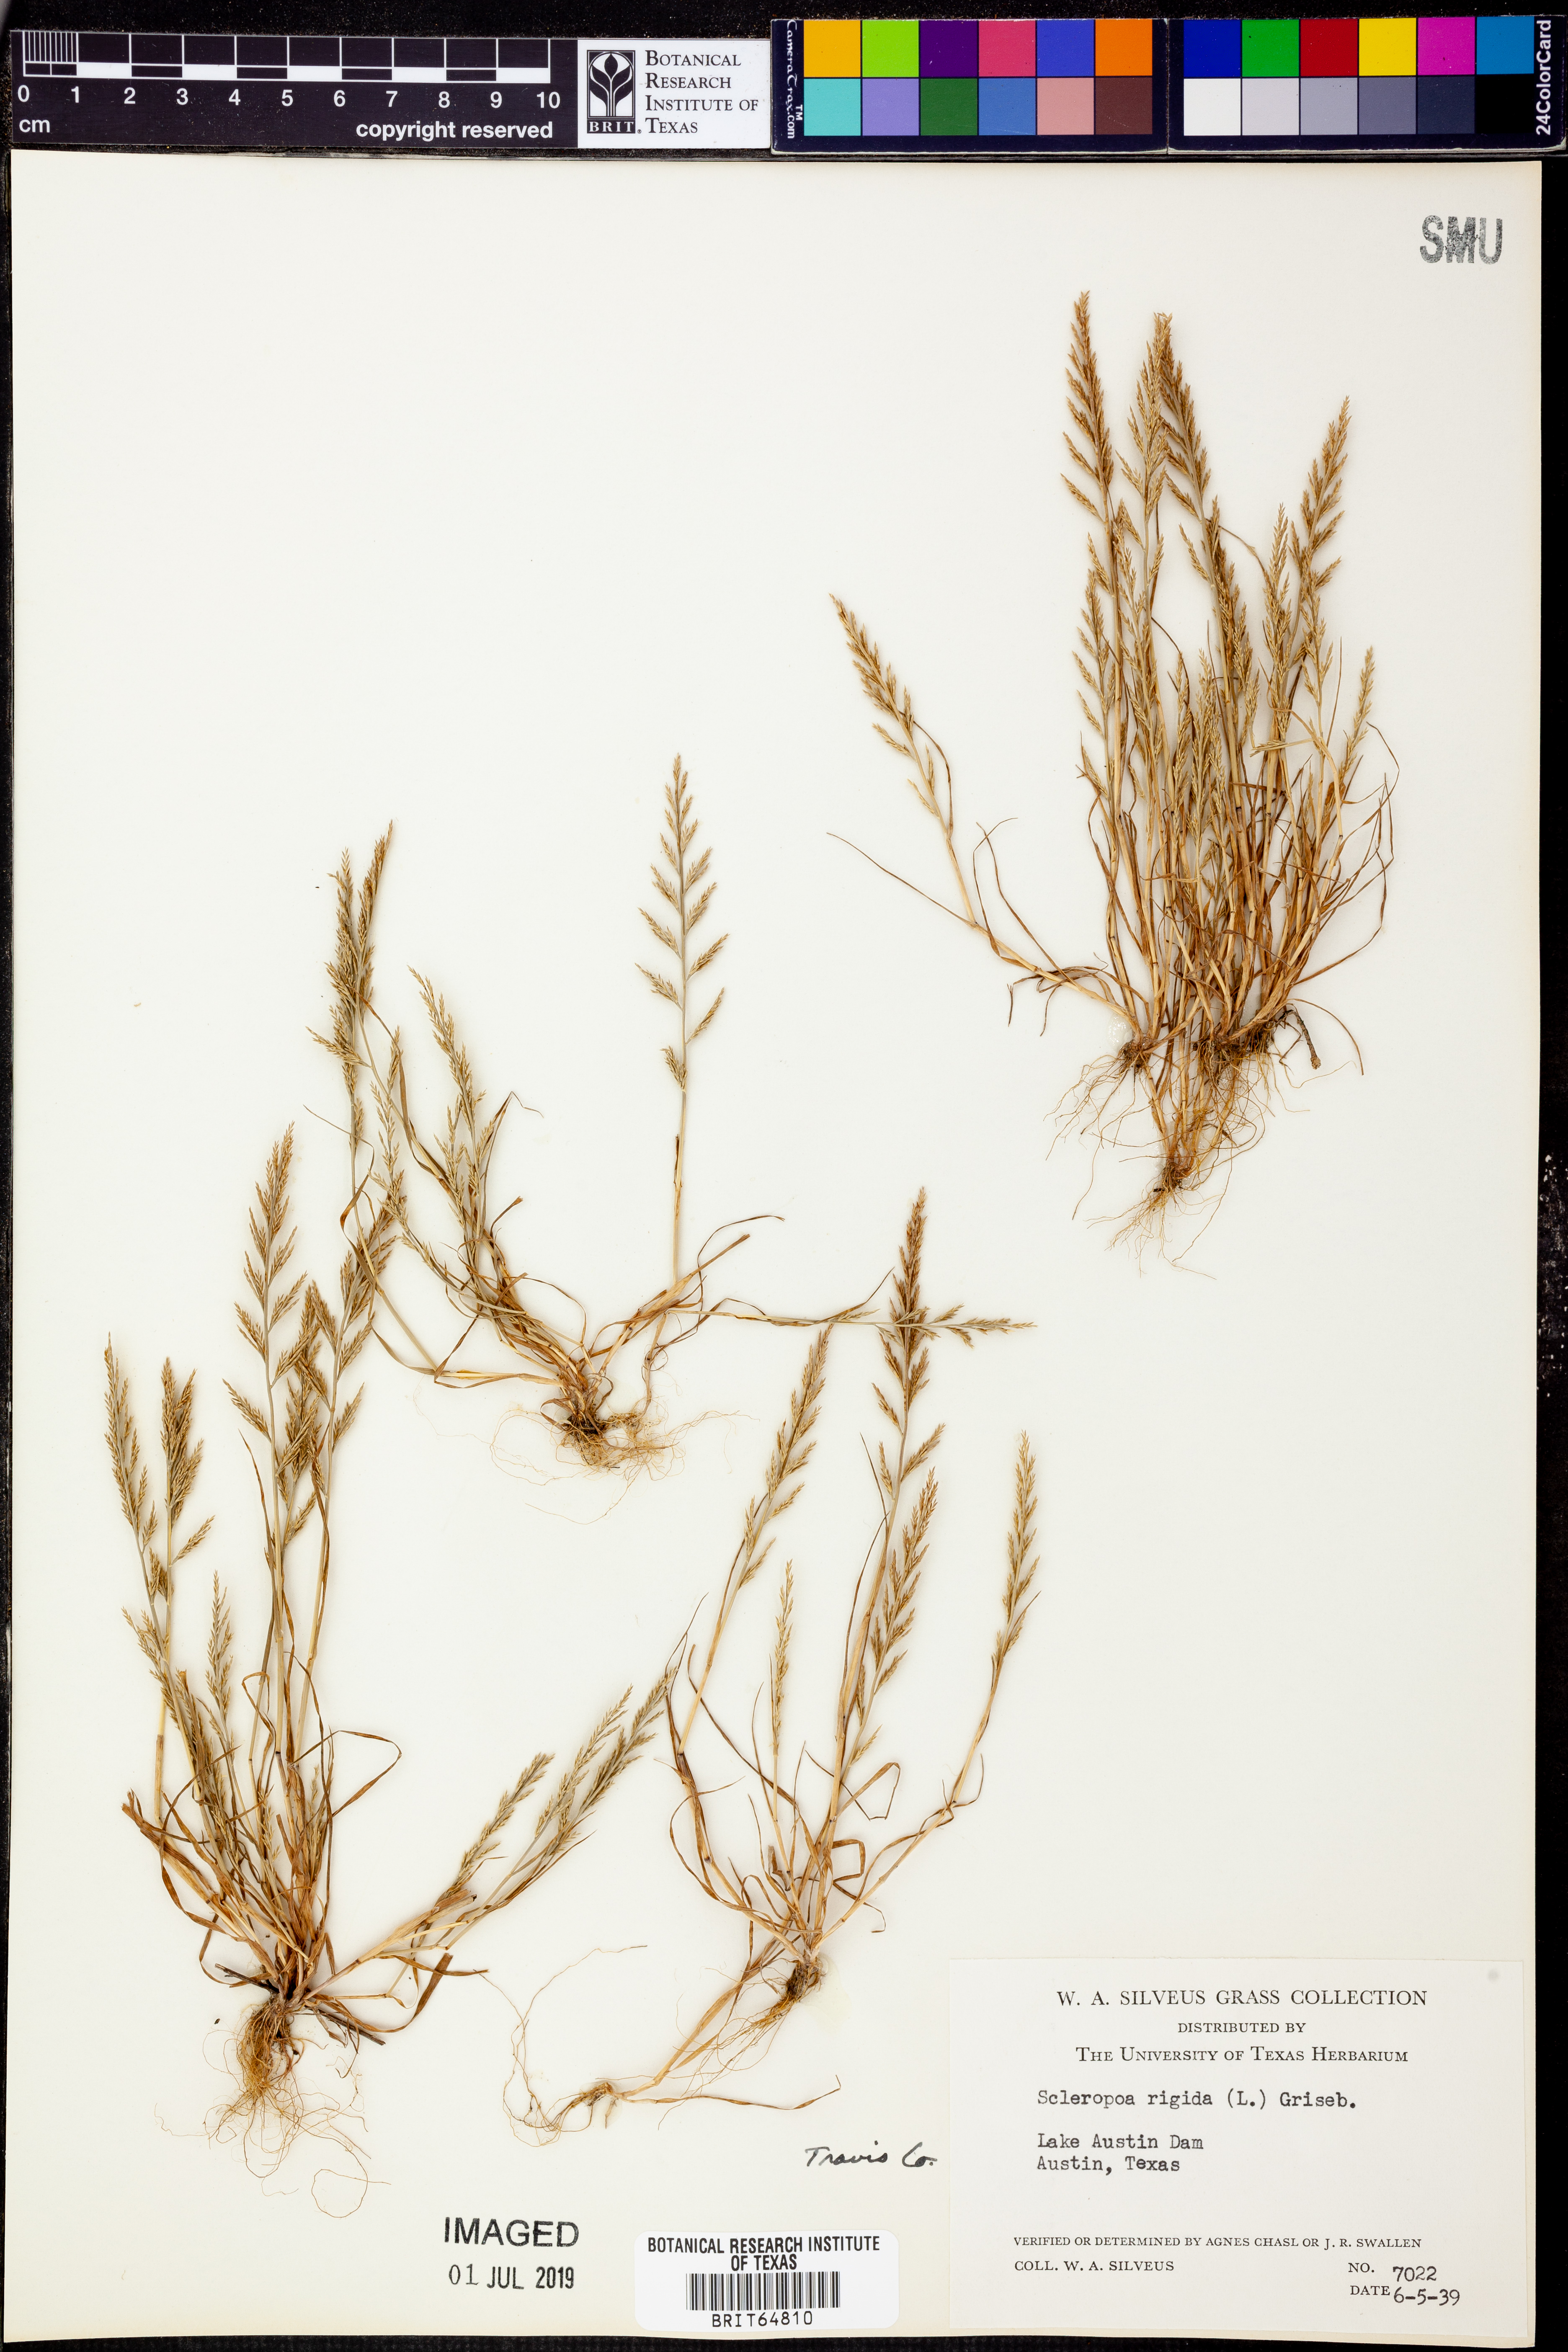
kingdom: Plantae
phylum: Tracheophyta
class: Liliopsida
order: Poales
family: Poaceae
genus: Catapodium
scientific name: Catapodium rigidum
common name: Fern-grass
